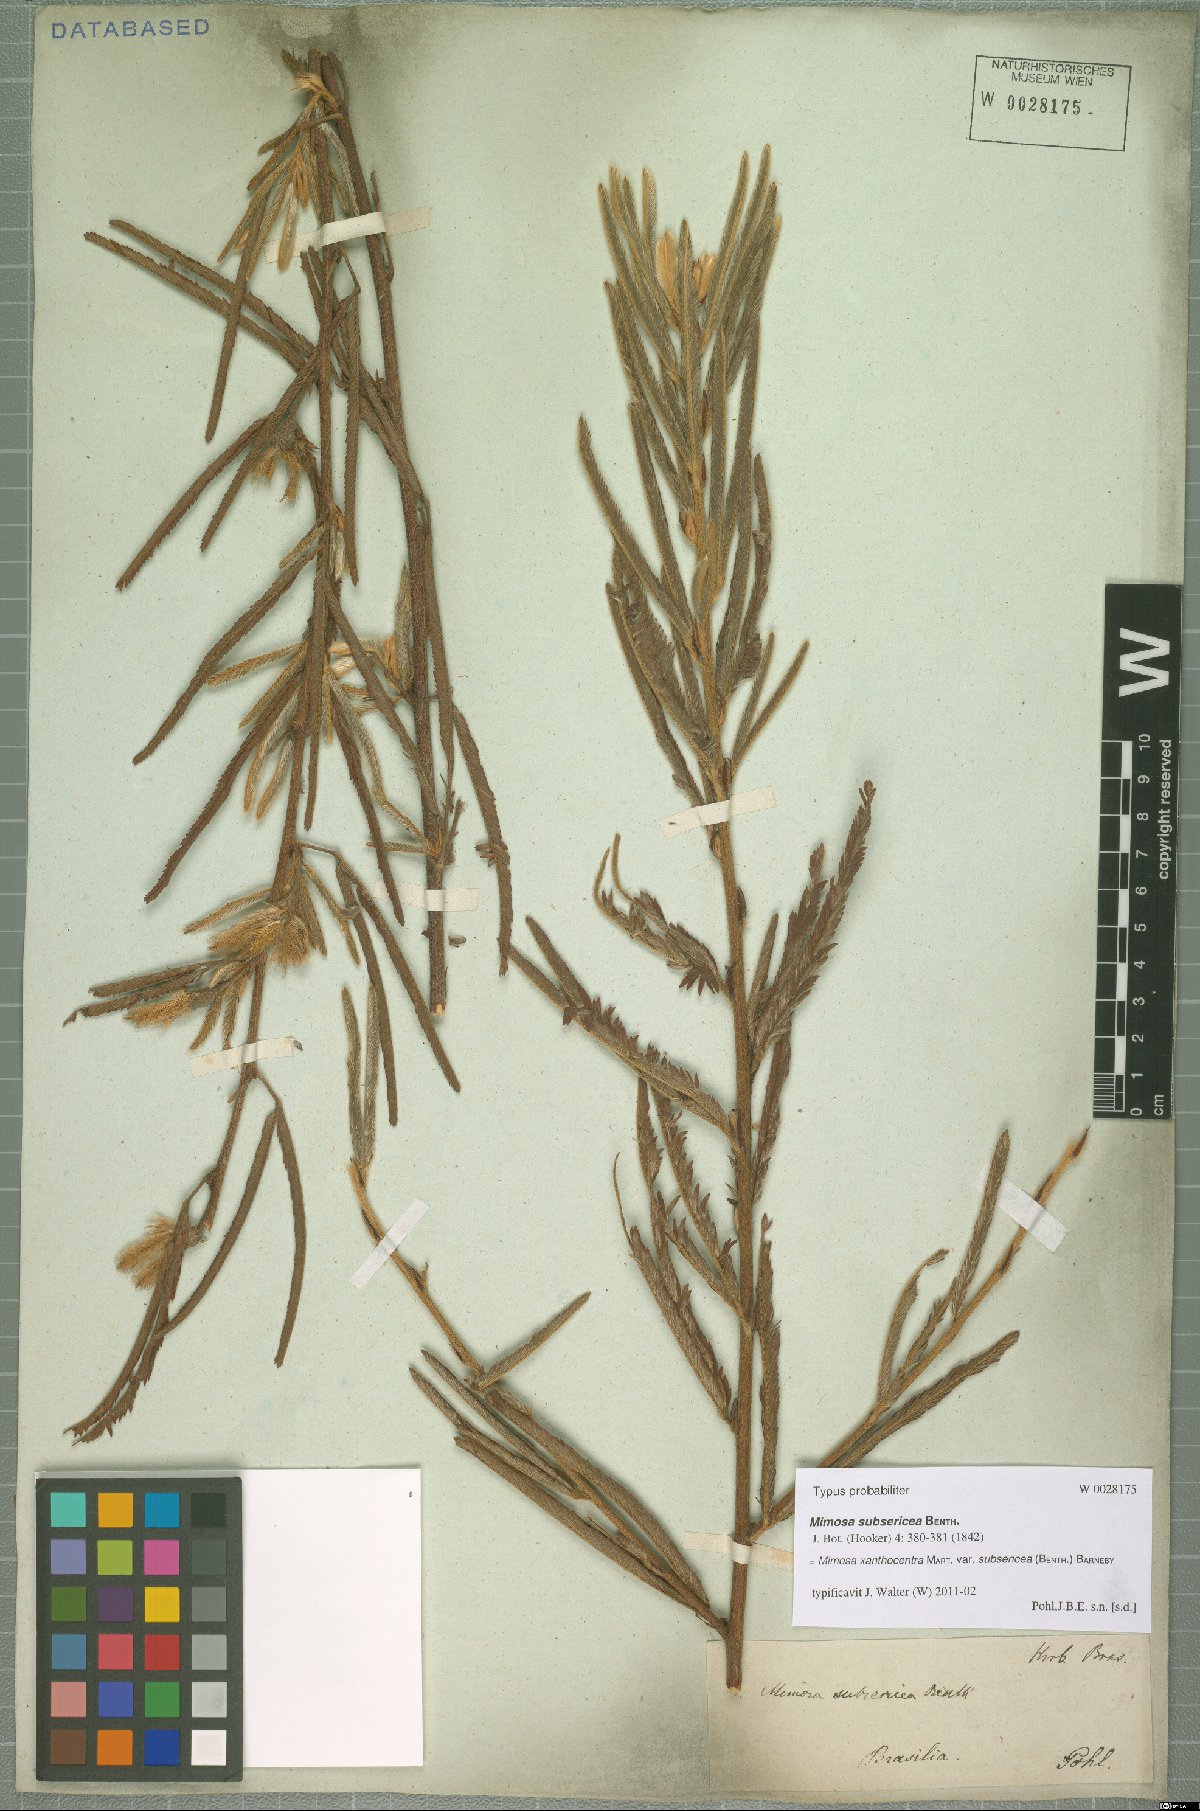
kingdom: Plantae
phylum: Tracheophyta
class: Magnoliopsida
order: Fabales
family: Fabaceae
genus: Mimosa
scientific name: Mimosa xanthocentra
